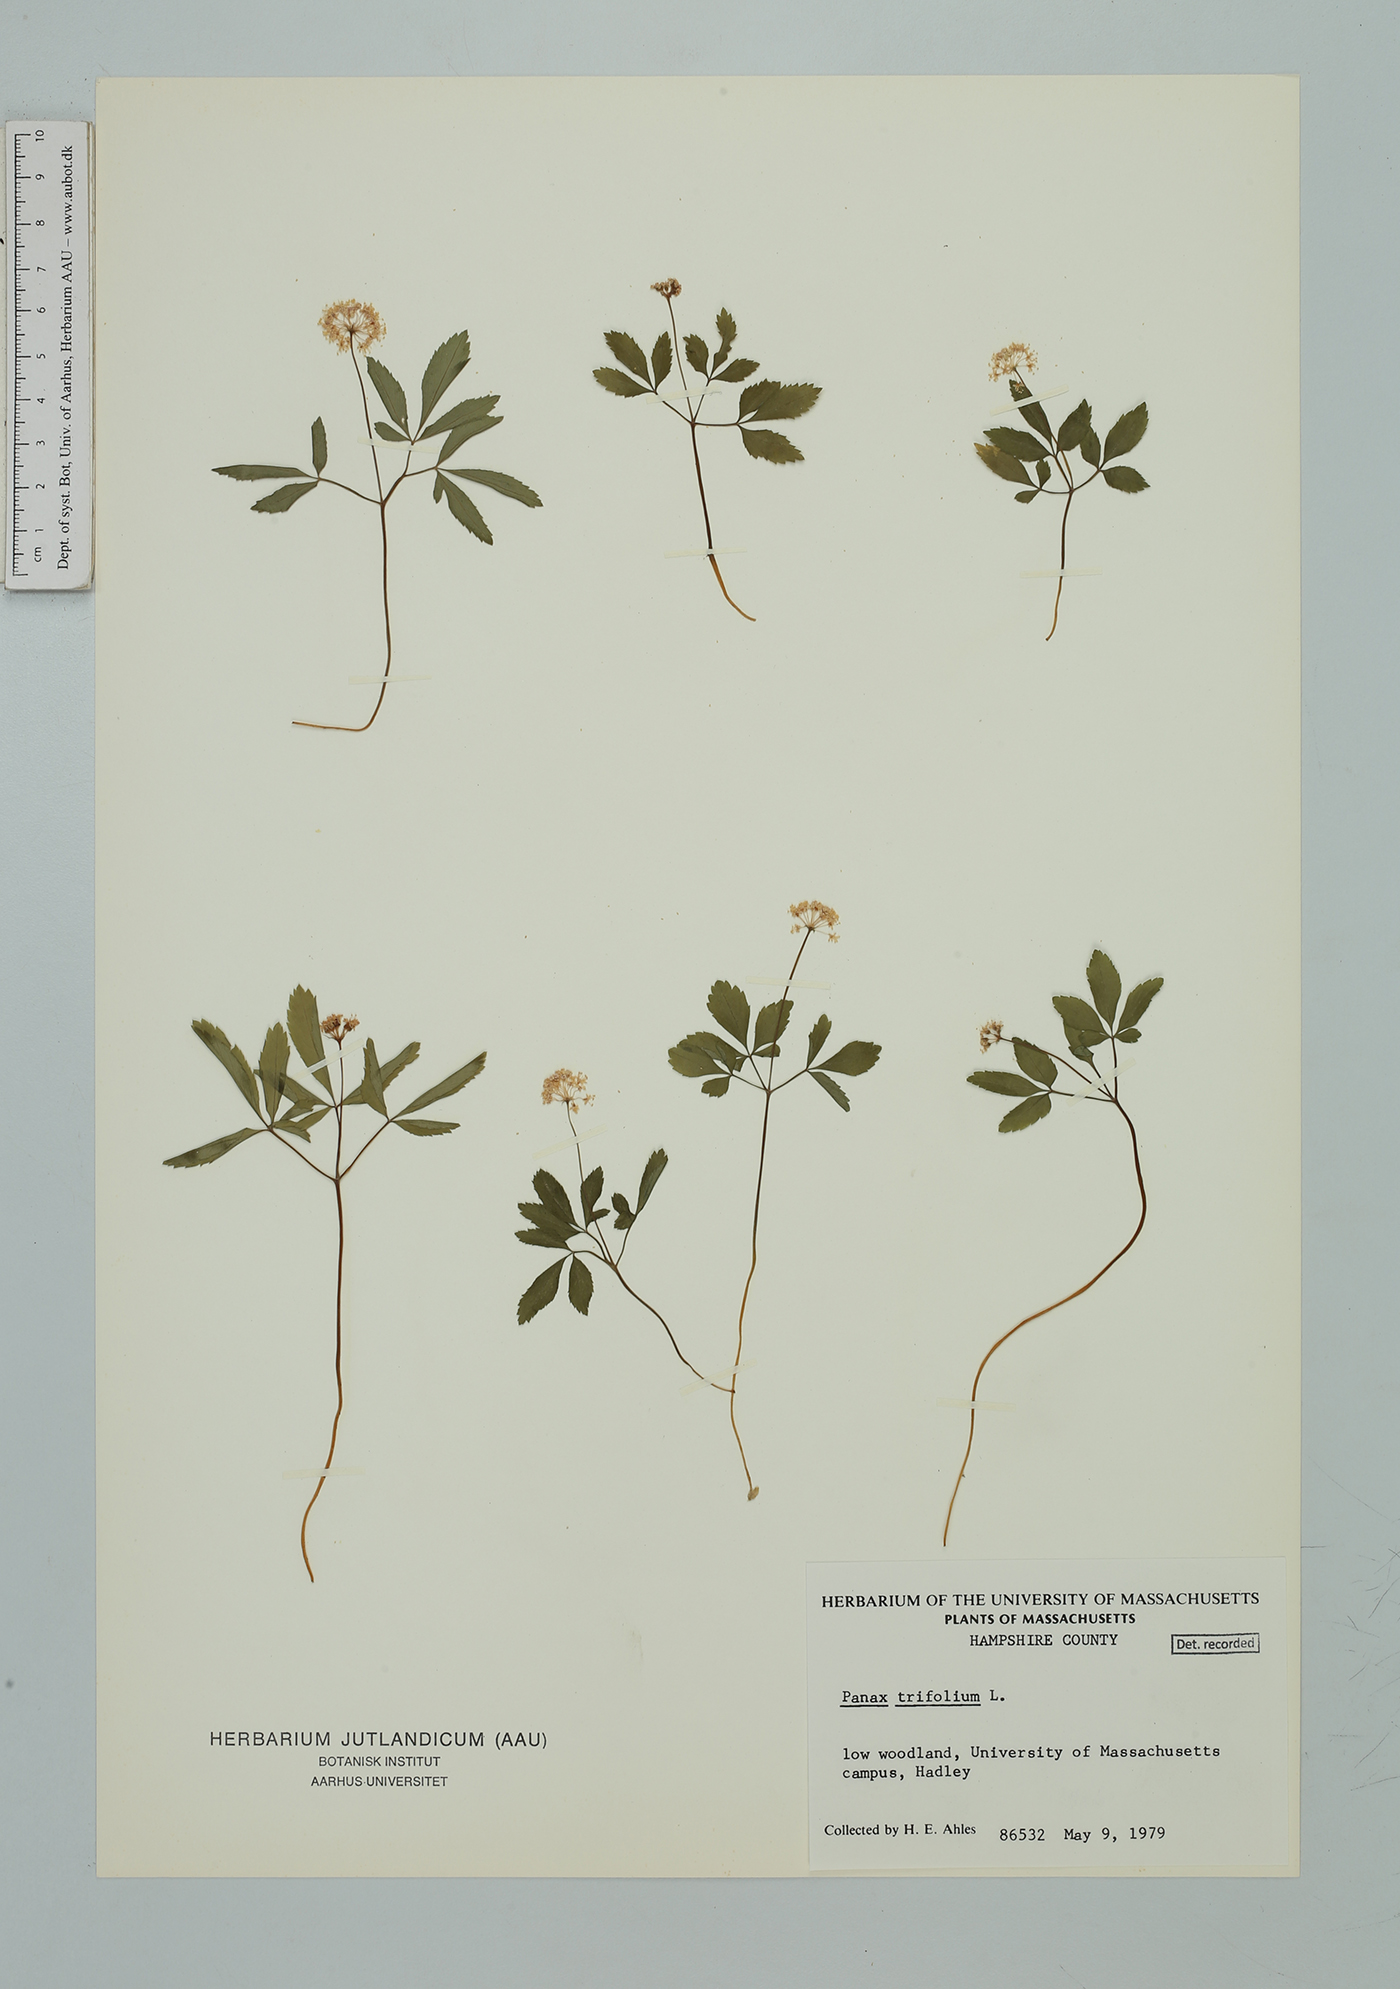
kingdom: Plantae
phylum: Tracheophyta
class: Magnoliopsida
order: Apiales
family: Araliaceae
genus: Panax
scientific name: Panax trifolius
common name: Dwarf ginseng
